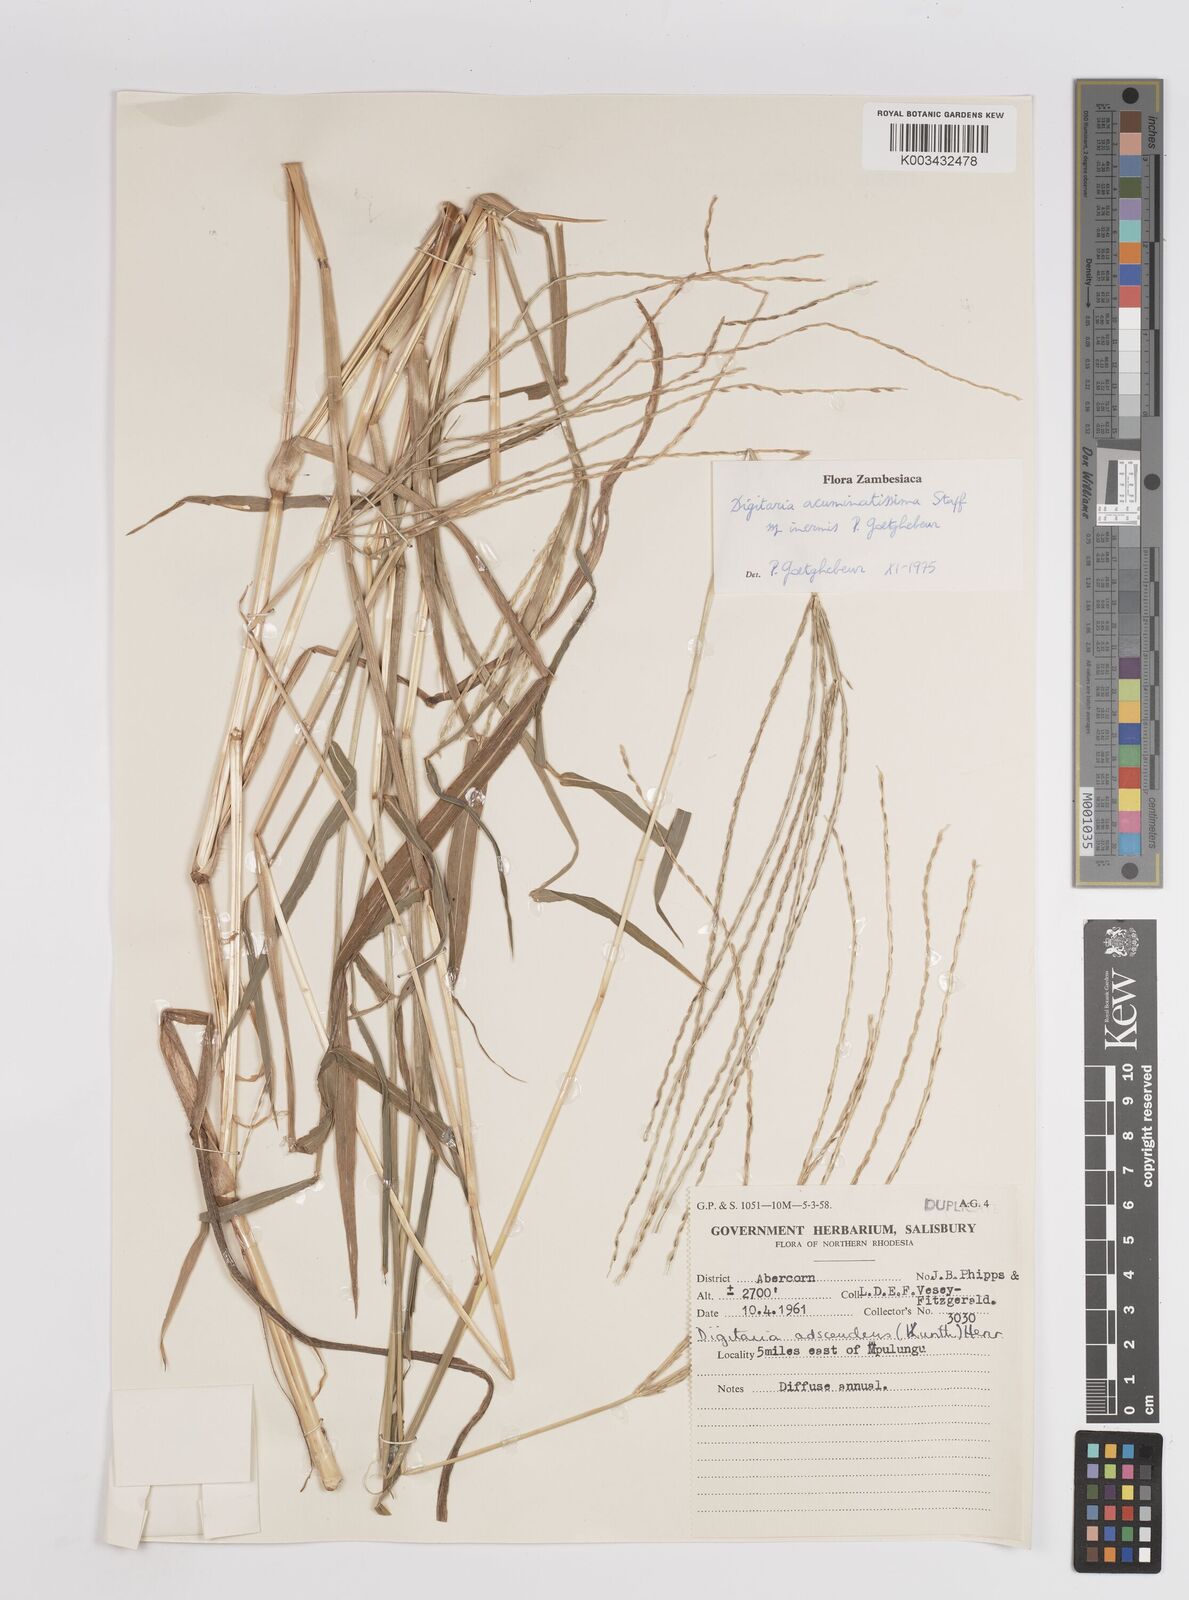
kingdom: Plantae
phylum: Tracheophyta
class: Liliopsida
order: Poales
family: Poaceae
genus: Digitaria
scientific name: Digitaria acuminatissima
